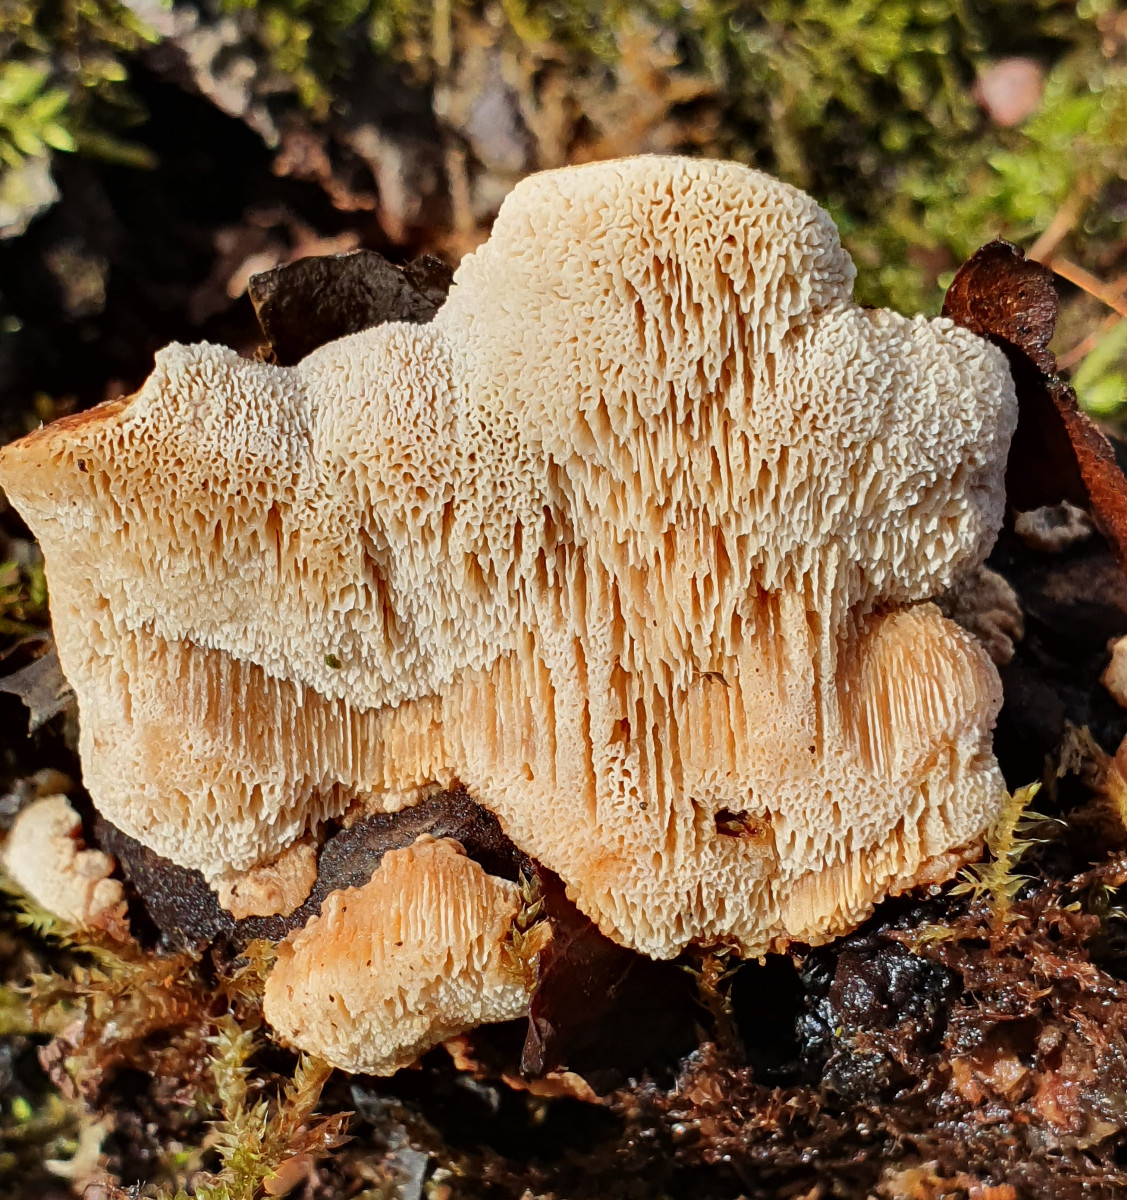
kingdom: Fungi
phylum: Basidiomycota
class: Agaricomycetes
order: Polyporales
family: Ischnodermataceae
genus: Ischnoderma
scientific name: Ischnoderma resinosum
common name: løv-tjæreporesvamp
